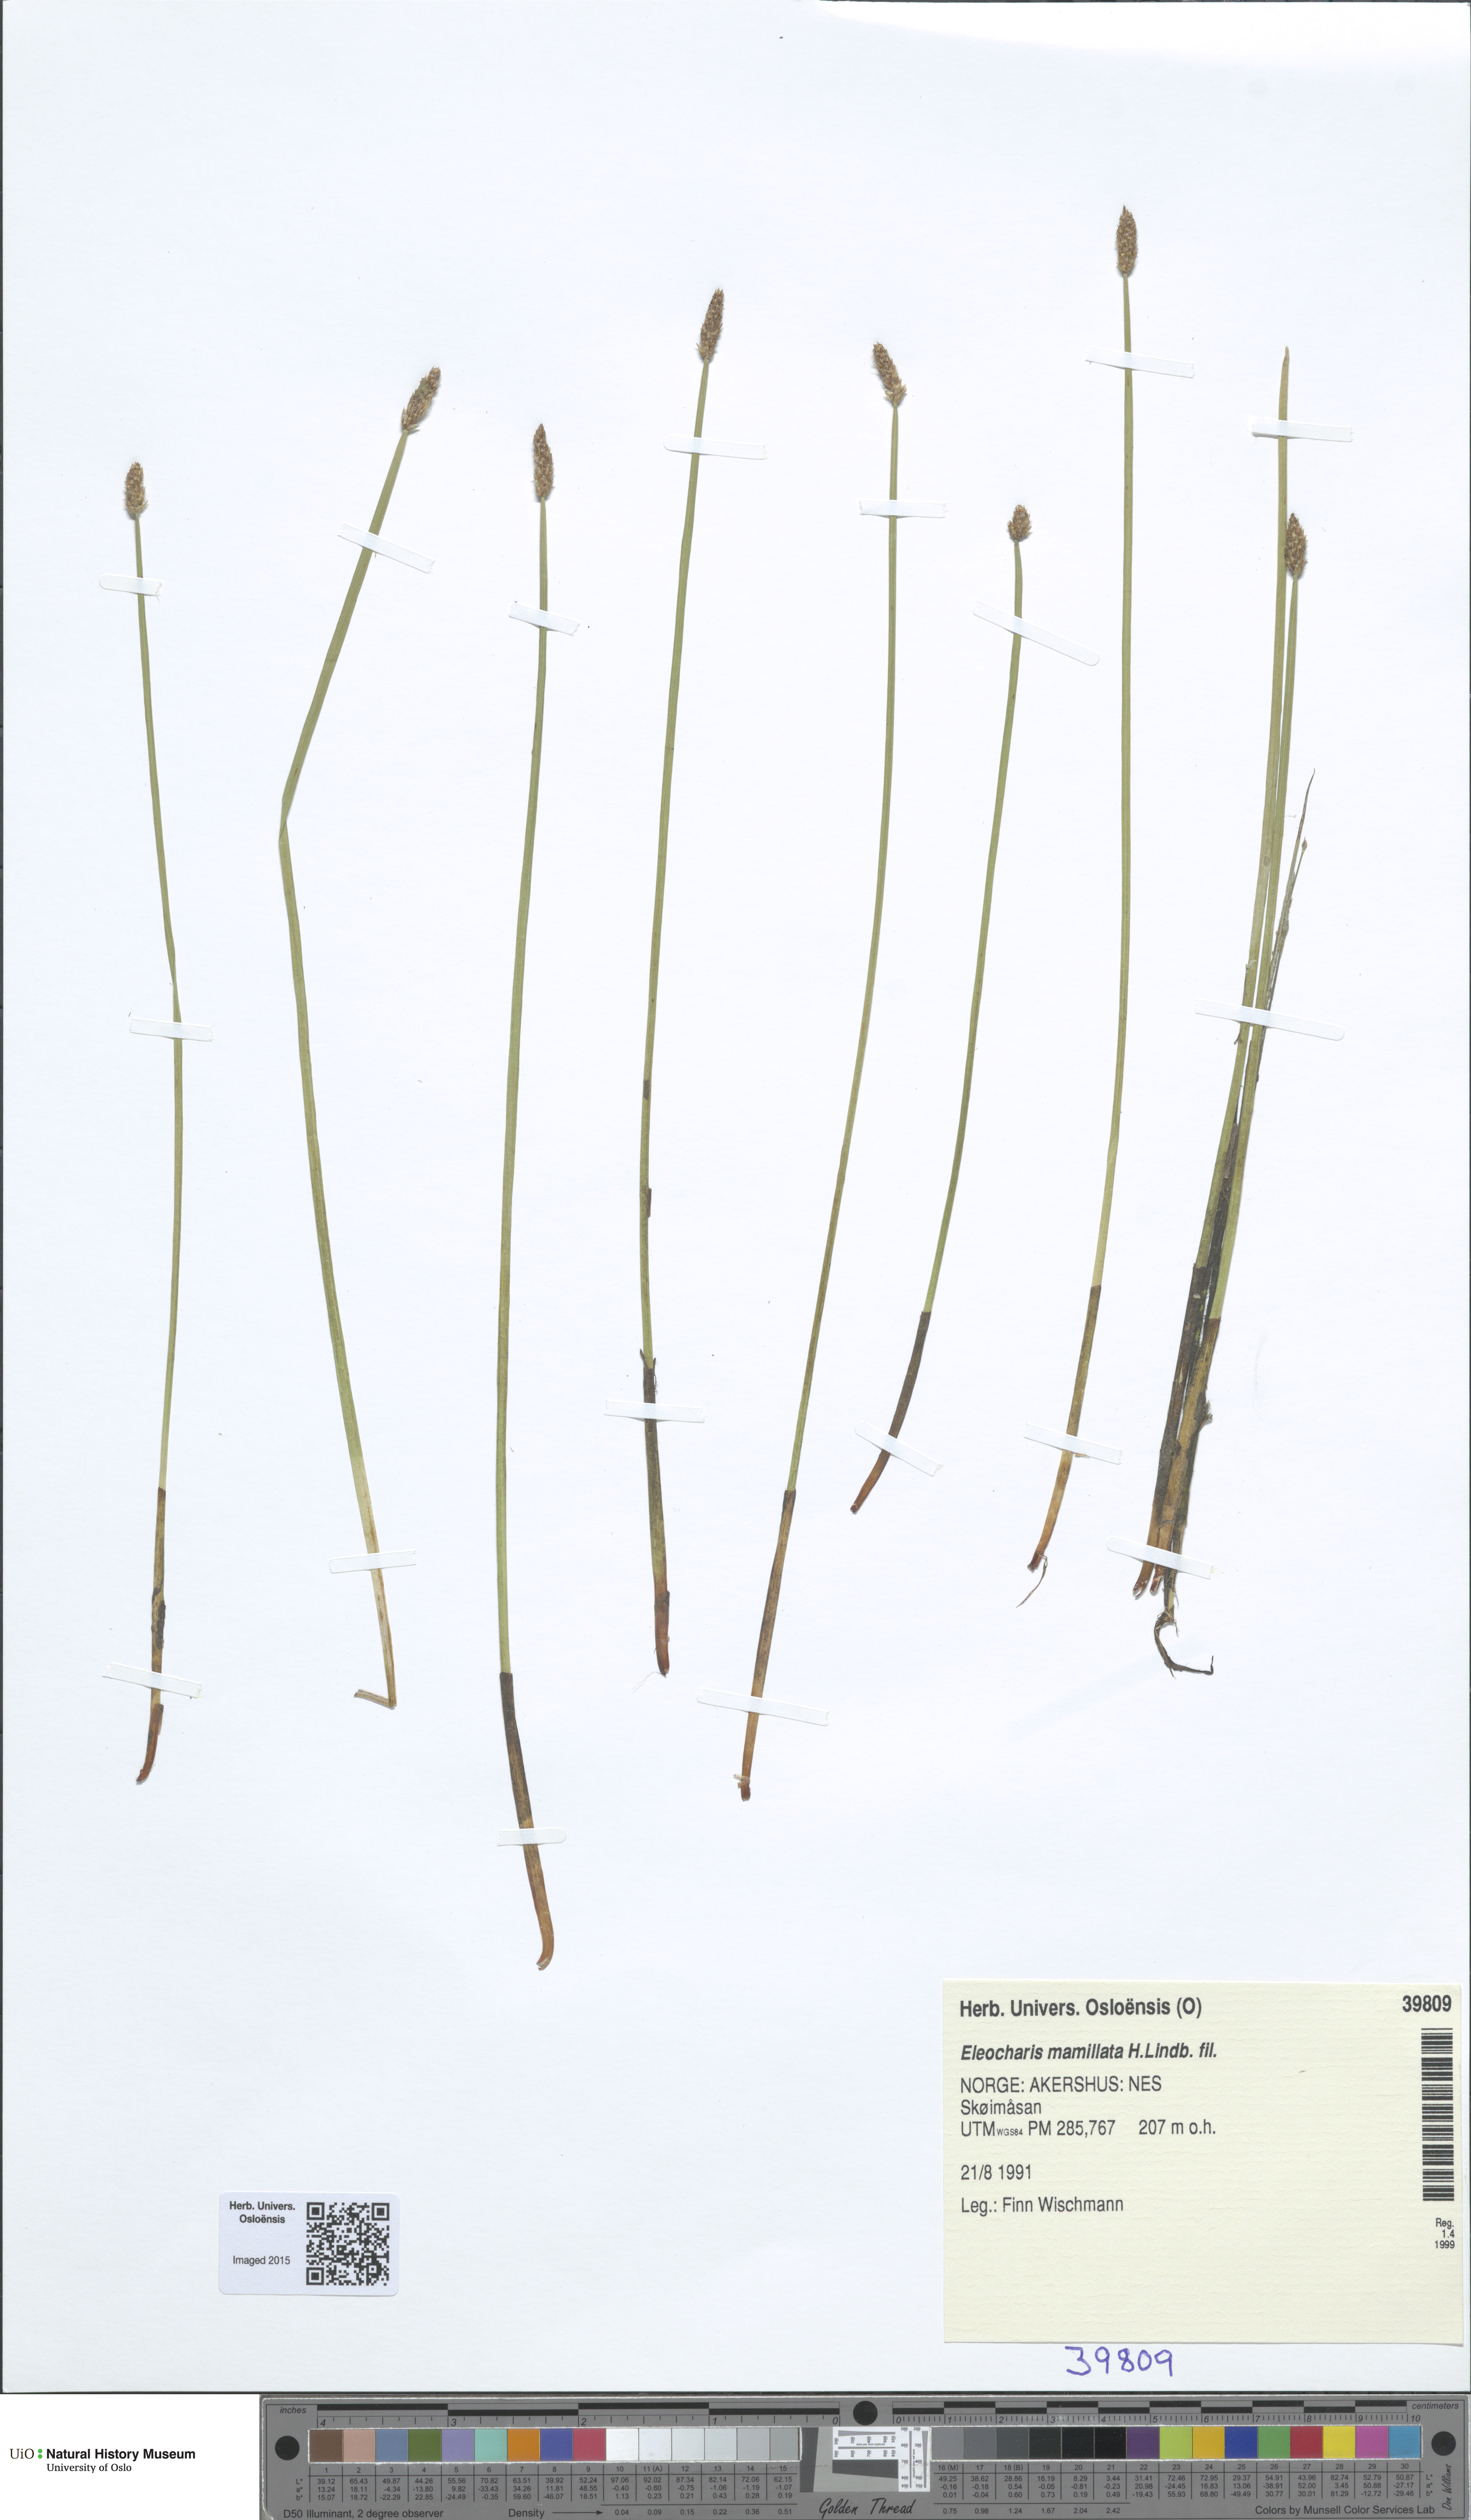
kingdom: Plantae
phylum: Tracheophyta
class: Liliopsida
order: Poales
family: Cyperaceae
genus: Eleocharis
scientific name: Eleocharis mamillata
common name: Northern spike-rush
